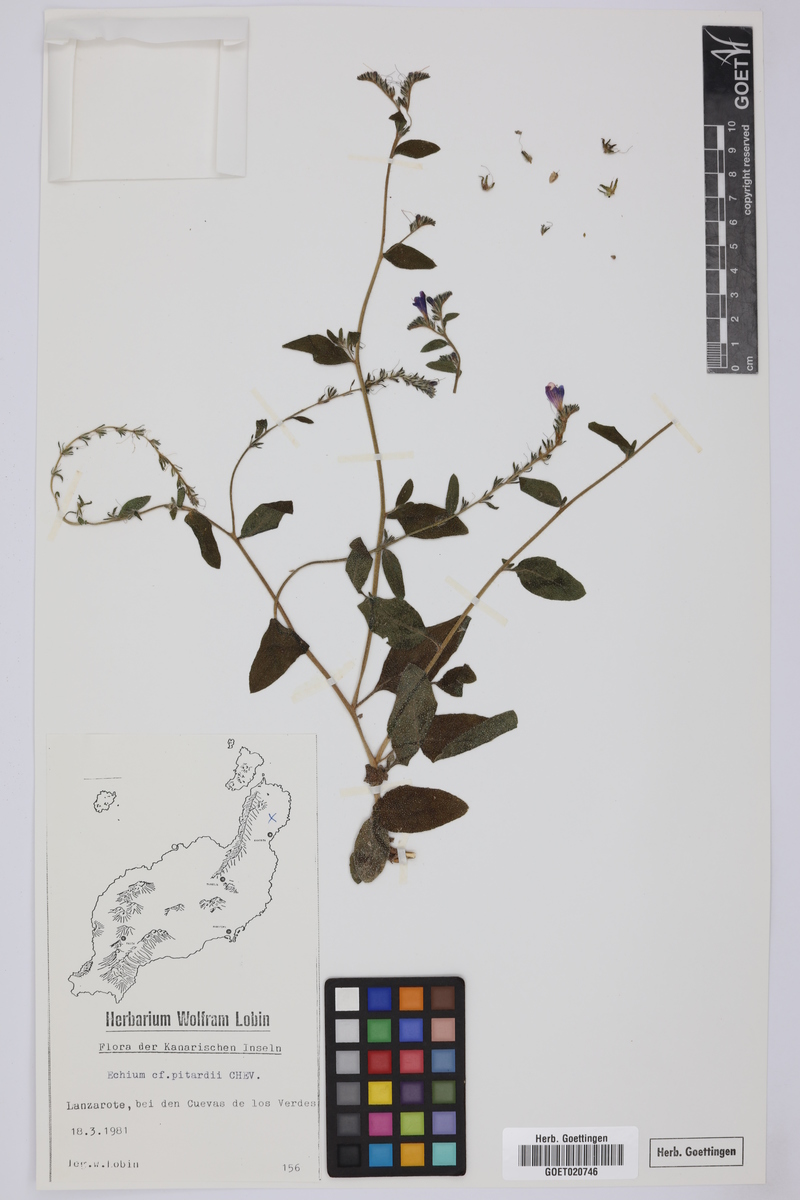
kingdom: Plantae
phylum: Tracheophyta
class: Magnoliopsida
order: Boraginales
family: Boraginaceae
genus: Echium
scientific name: Echium pitardii
